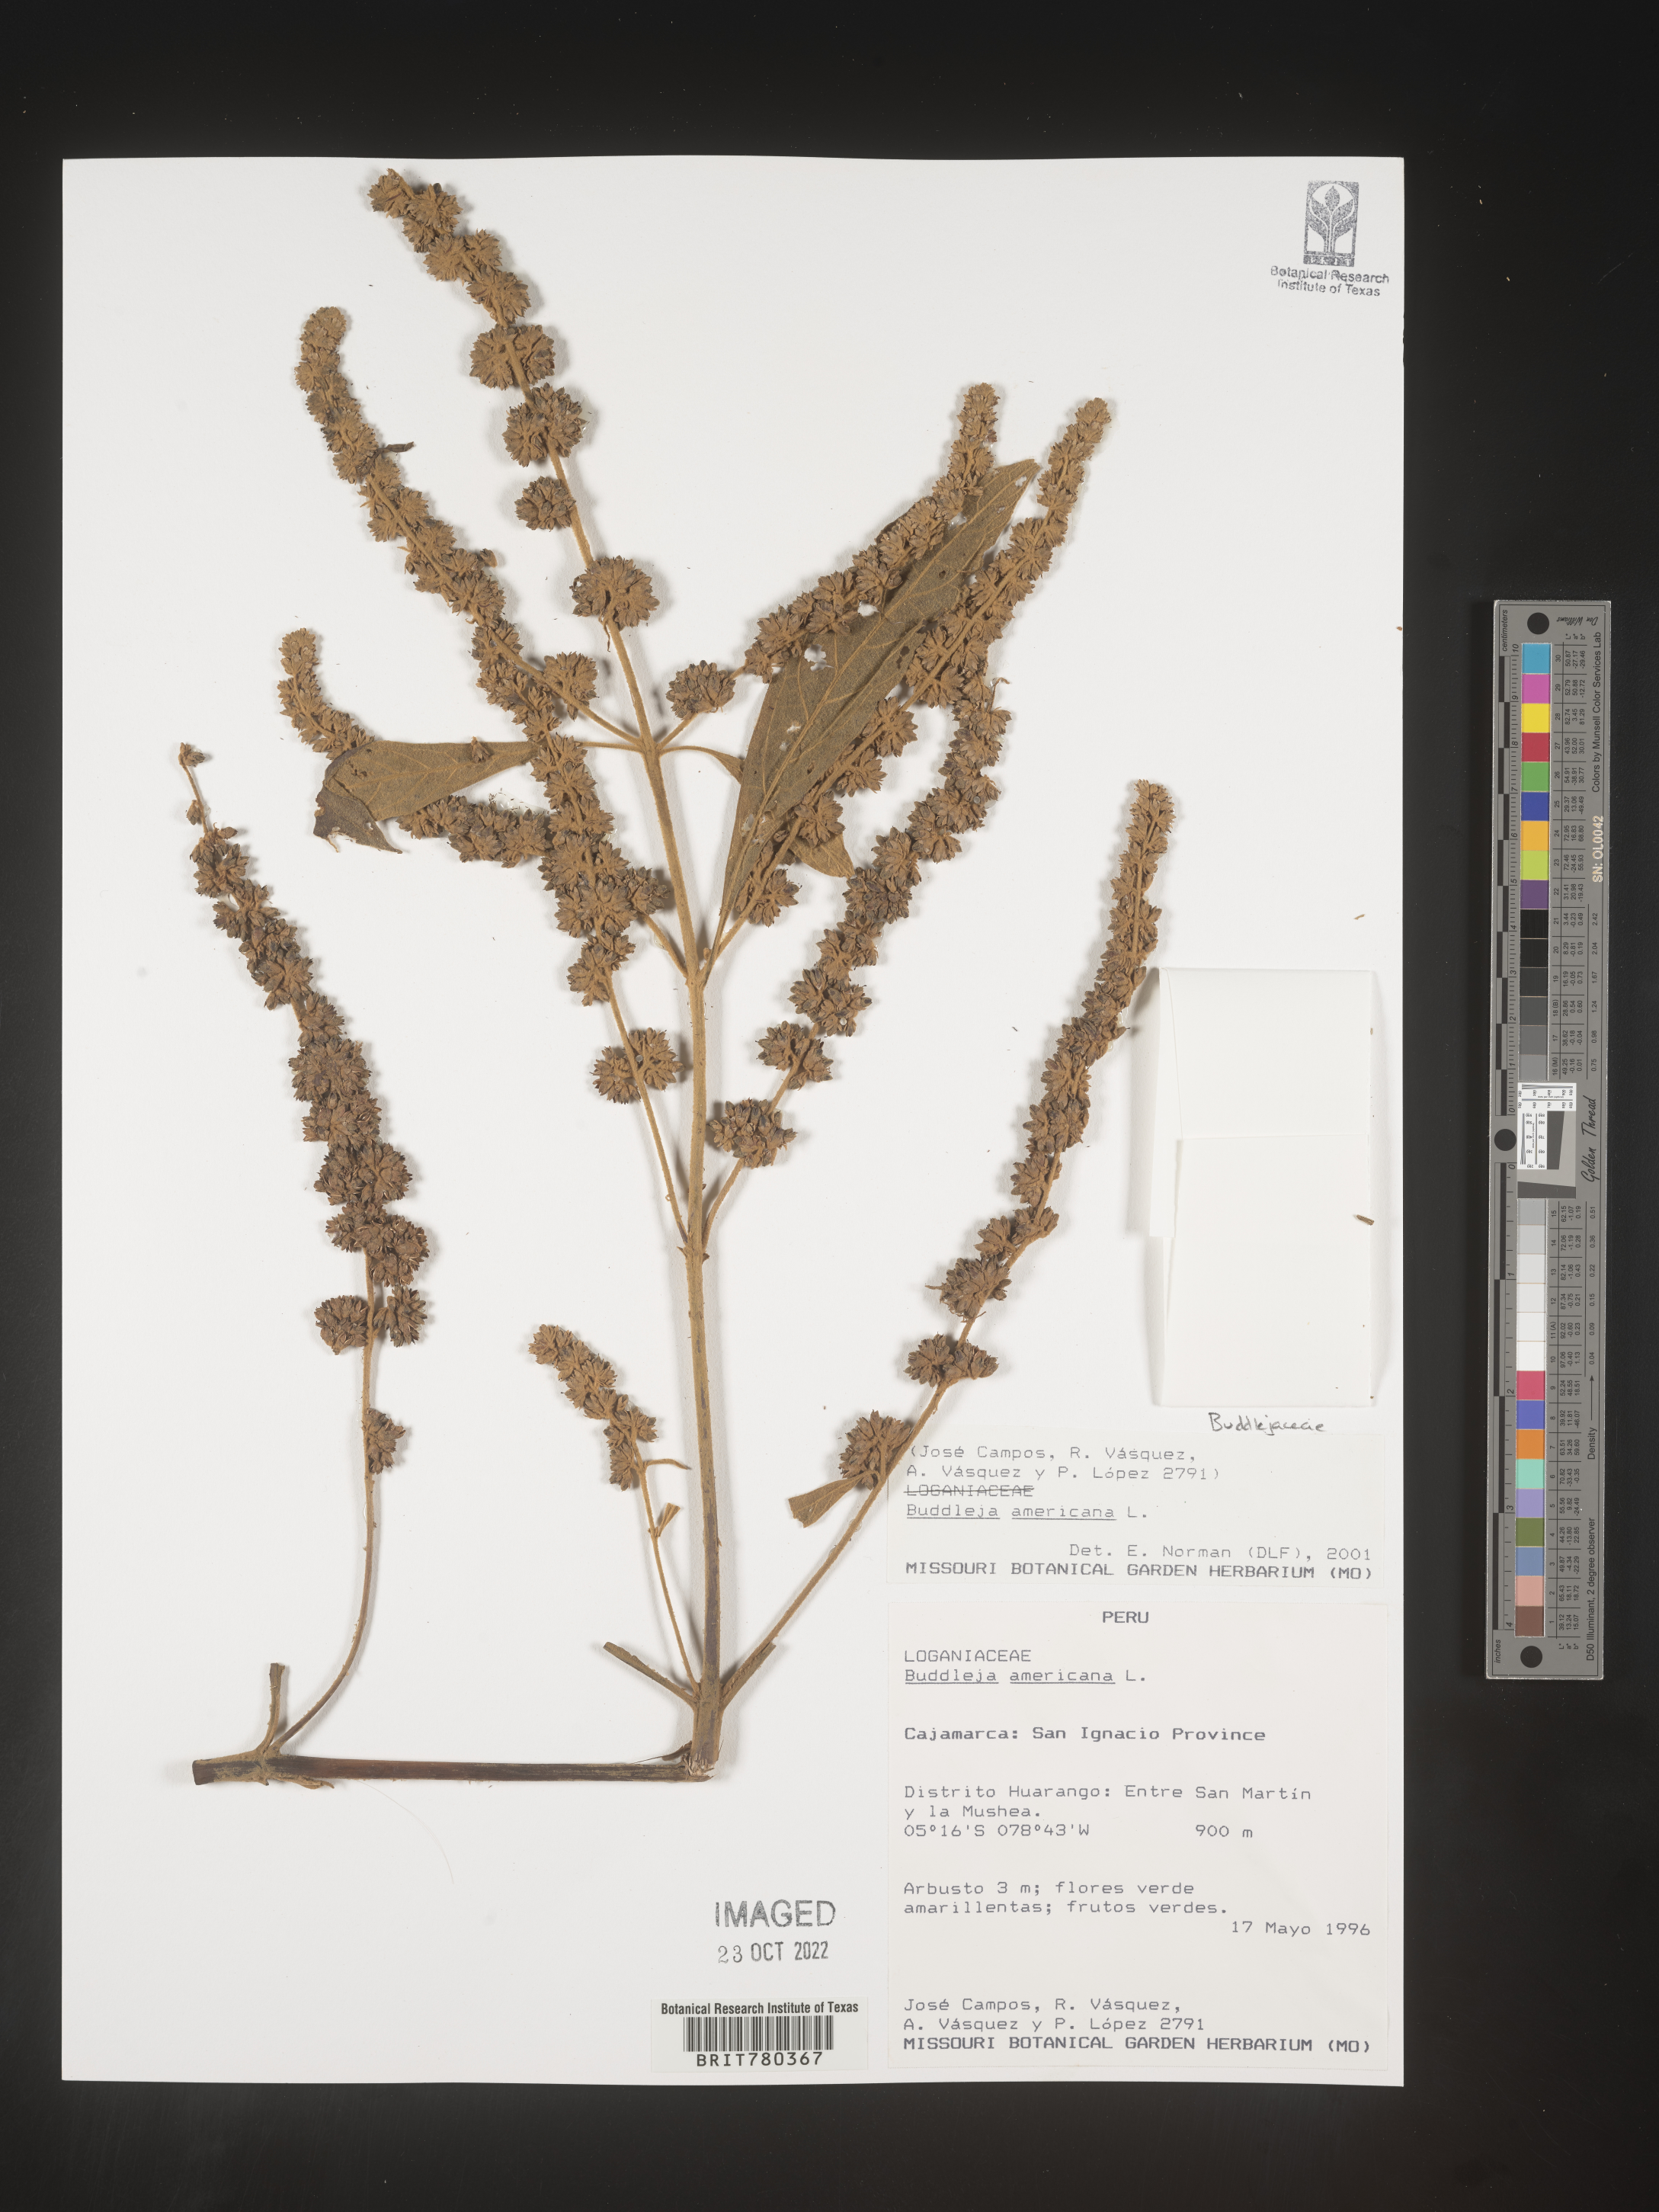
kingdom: Plantae
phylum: Tracheophyta
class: Magnoliopsida
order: Lamiales
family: Scrophulariaceae
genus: Buddleja
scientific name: Buddleja
